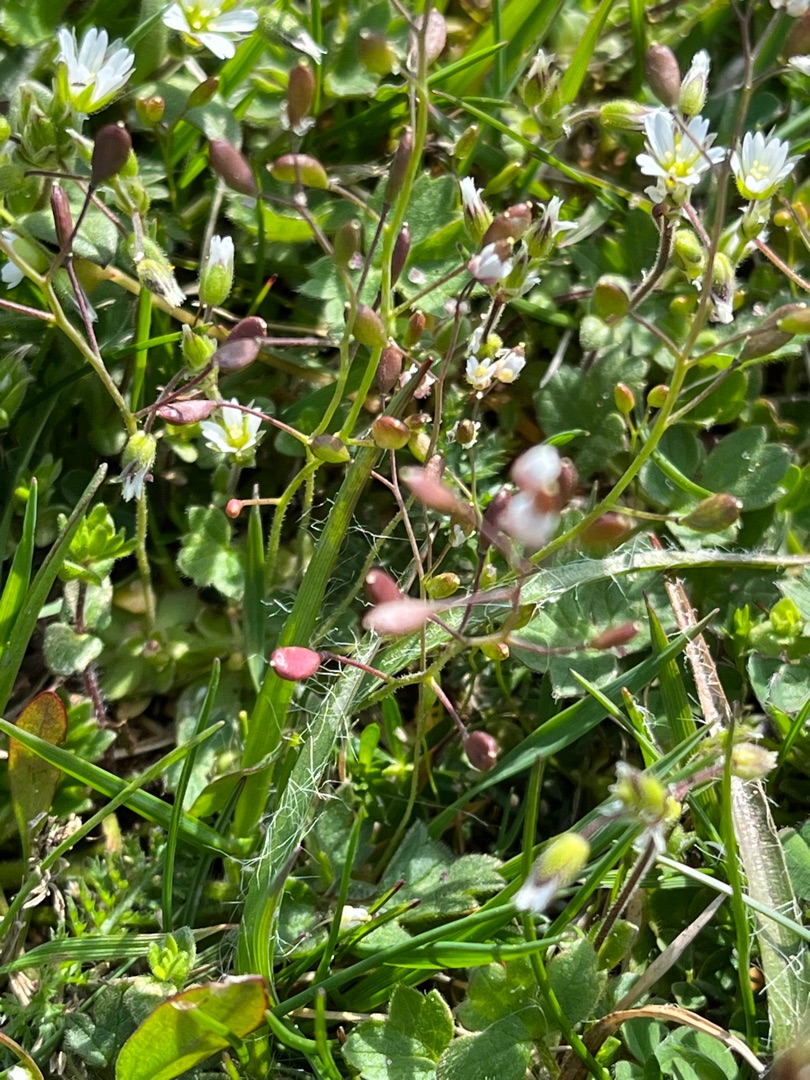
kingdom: Plantae
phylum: Tracheophyta
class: Magnoliopsida
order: Brassicales
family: Brassicaceae
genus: Draba
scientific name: Draba verna
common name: Vår-gæslingeblomst
